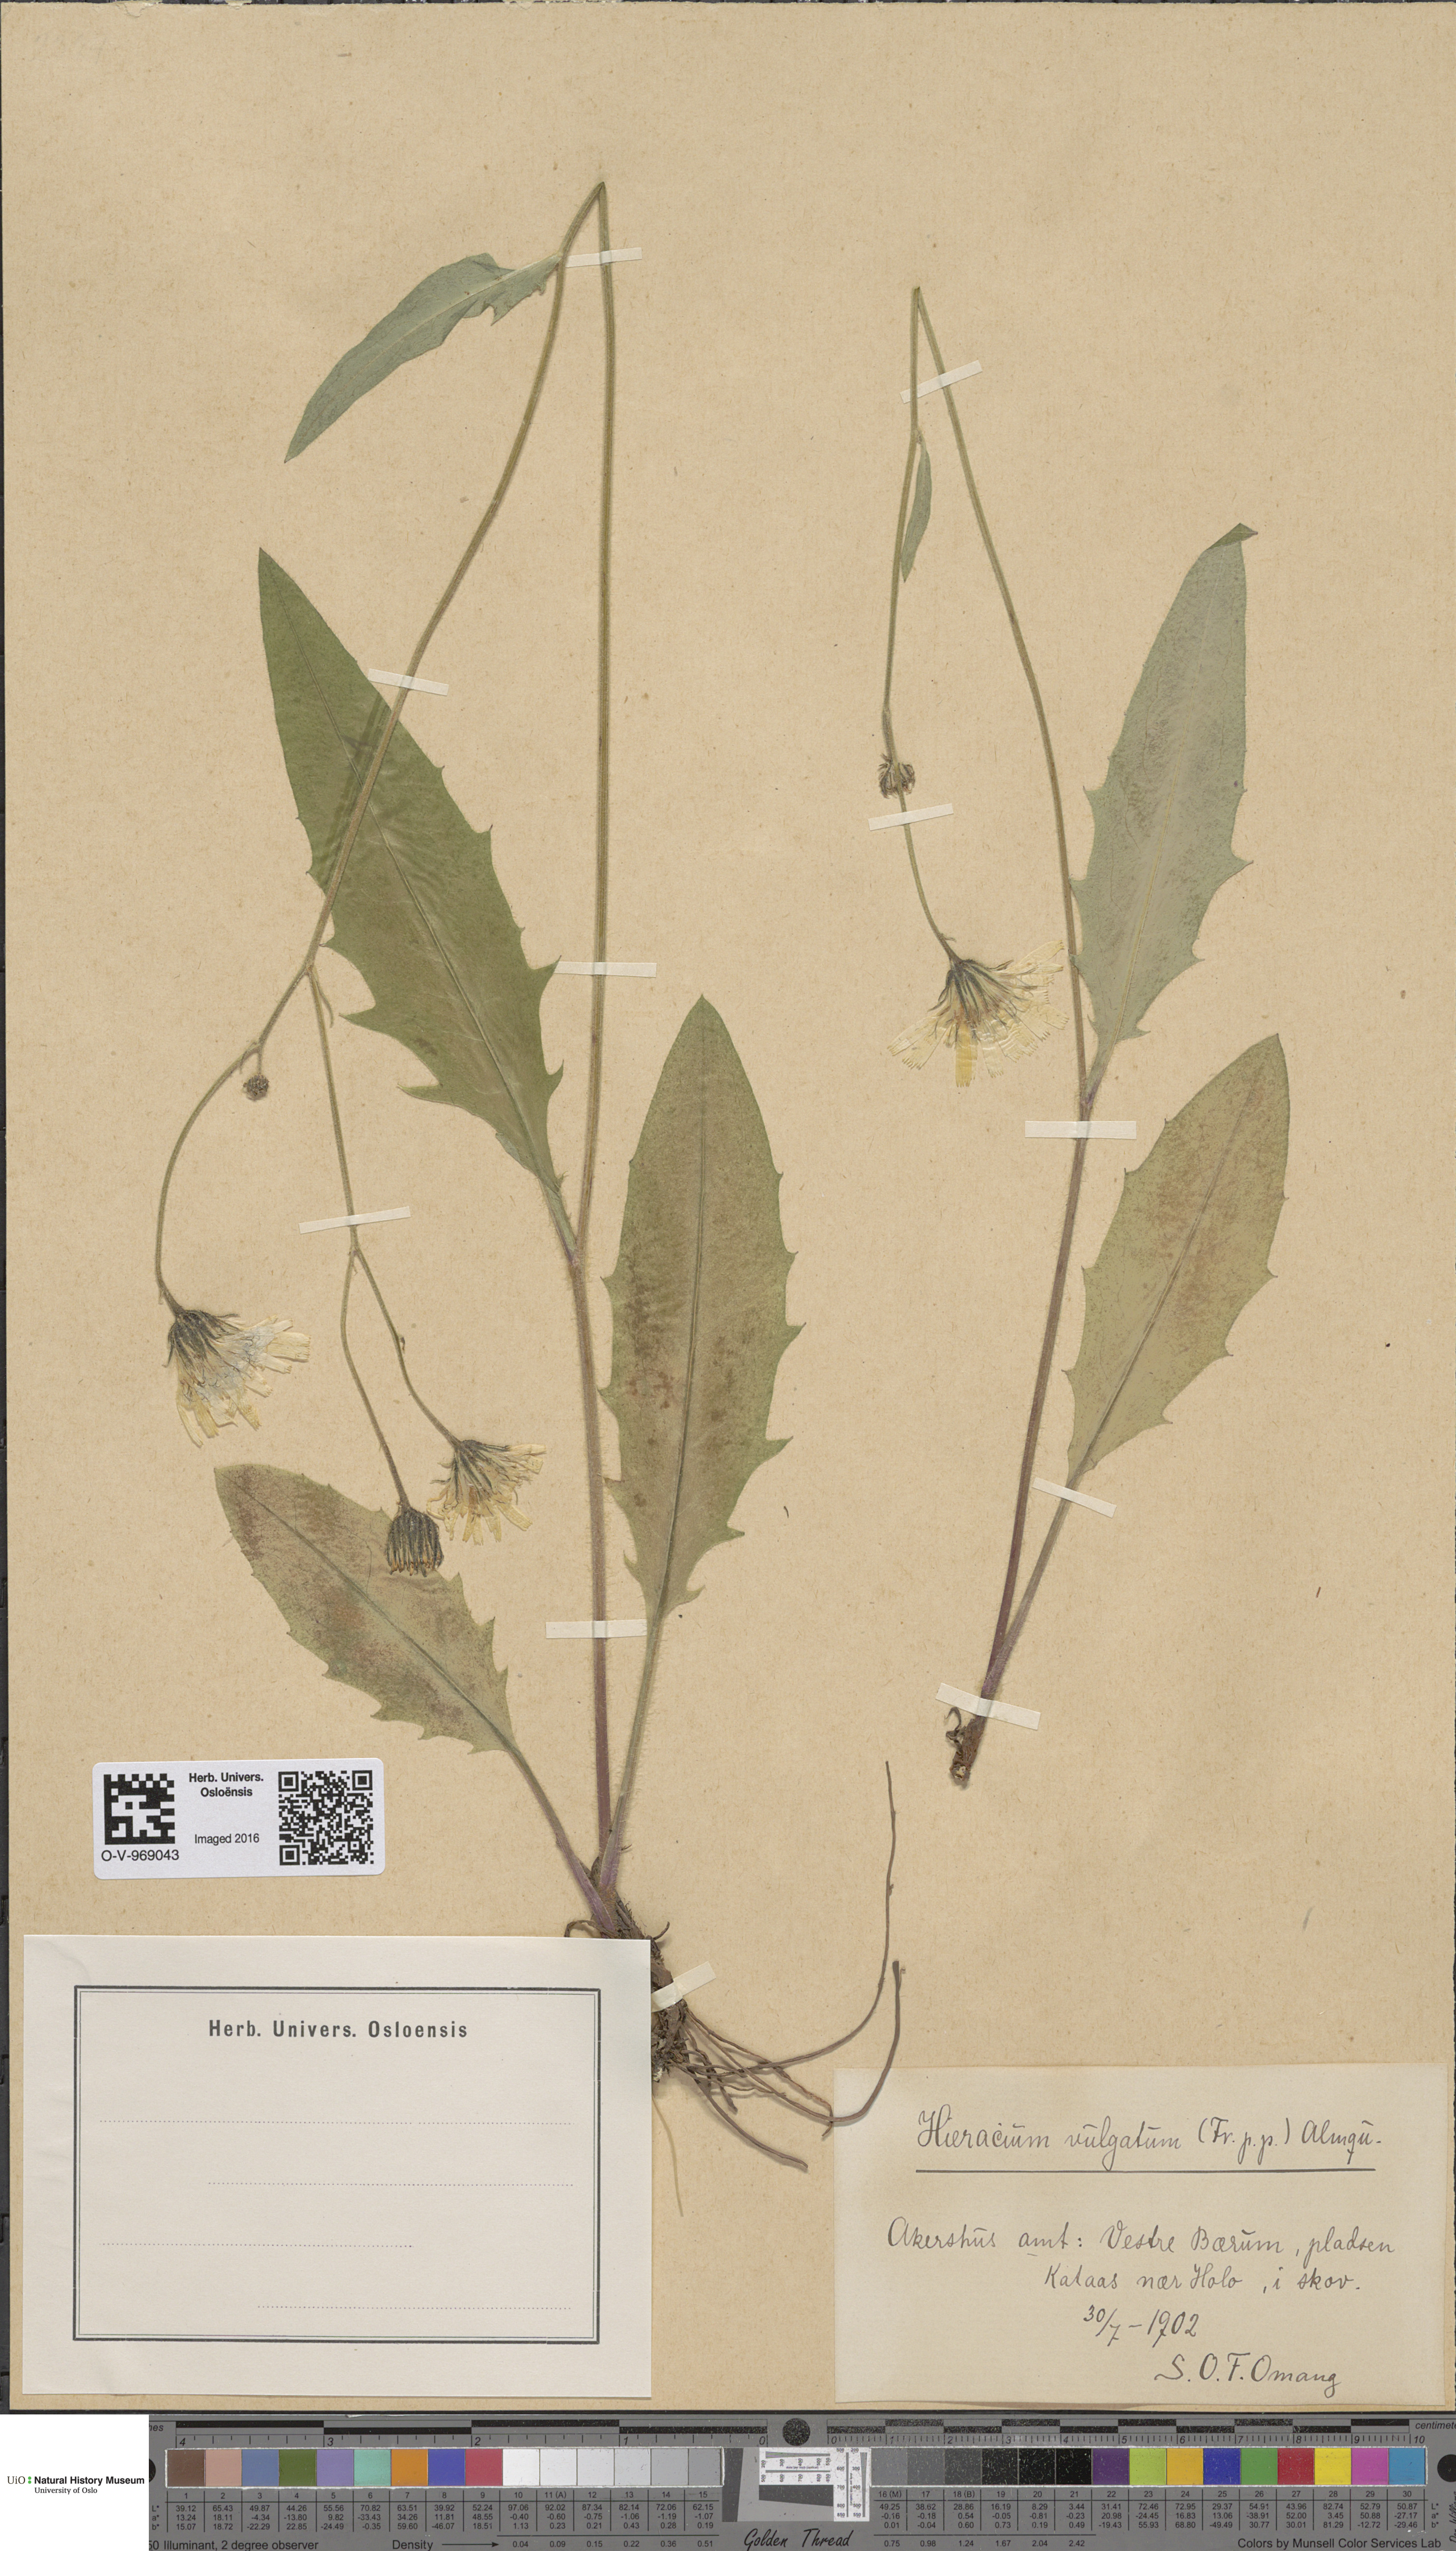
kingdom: Plantae
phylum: Tracheophyta
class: Magnoliopsida
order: Asterales
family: Asteraceae
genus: Hieracium
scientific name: Hieracium vulgatum
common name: Common hawkweed
